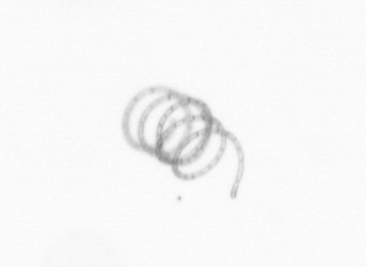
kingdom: Chromista
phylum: Ochrophyta
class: Bacillariophyceae
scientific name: Bacillariophyceae
